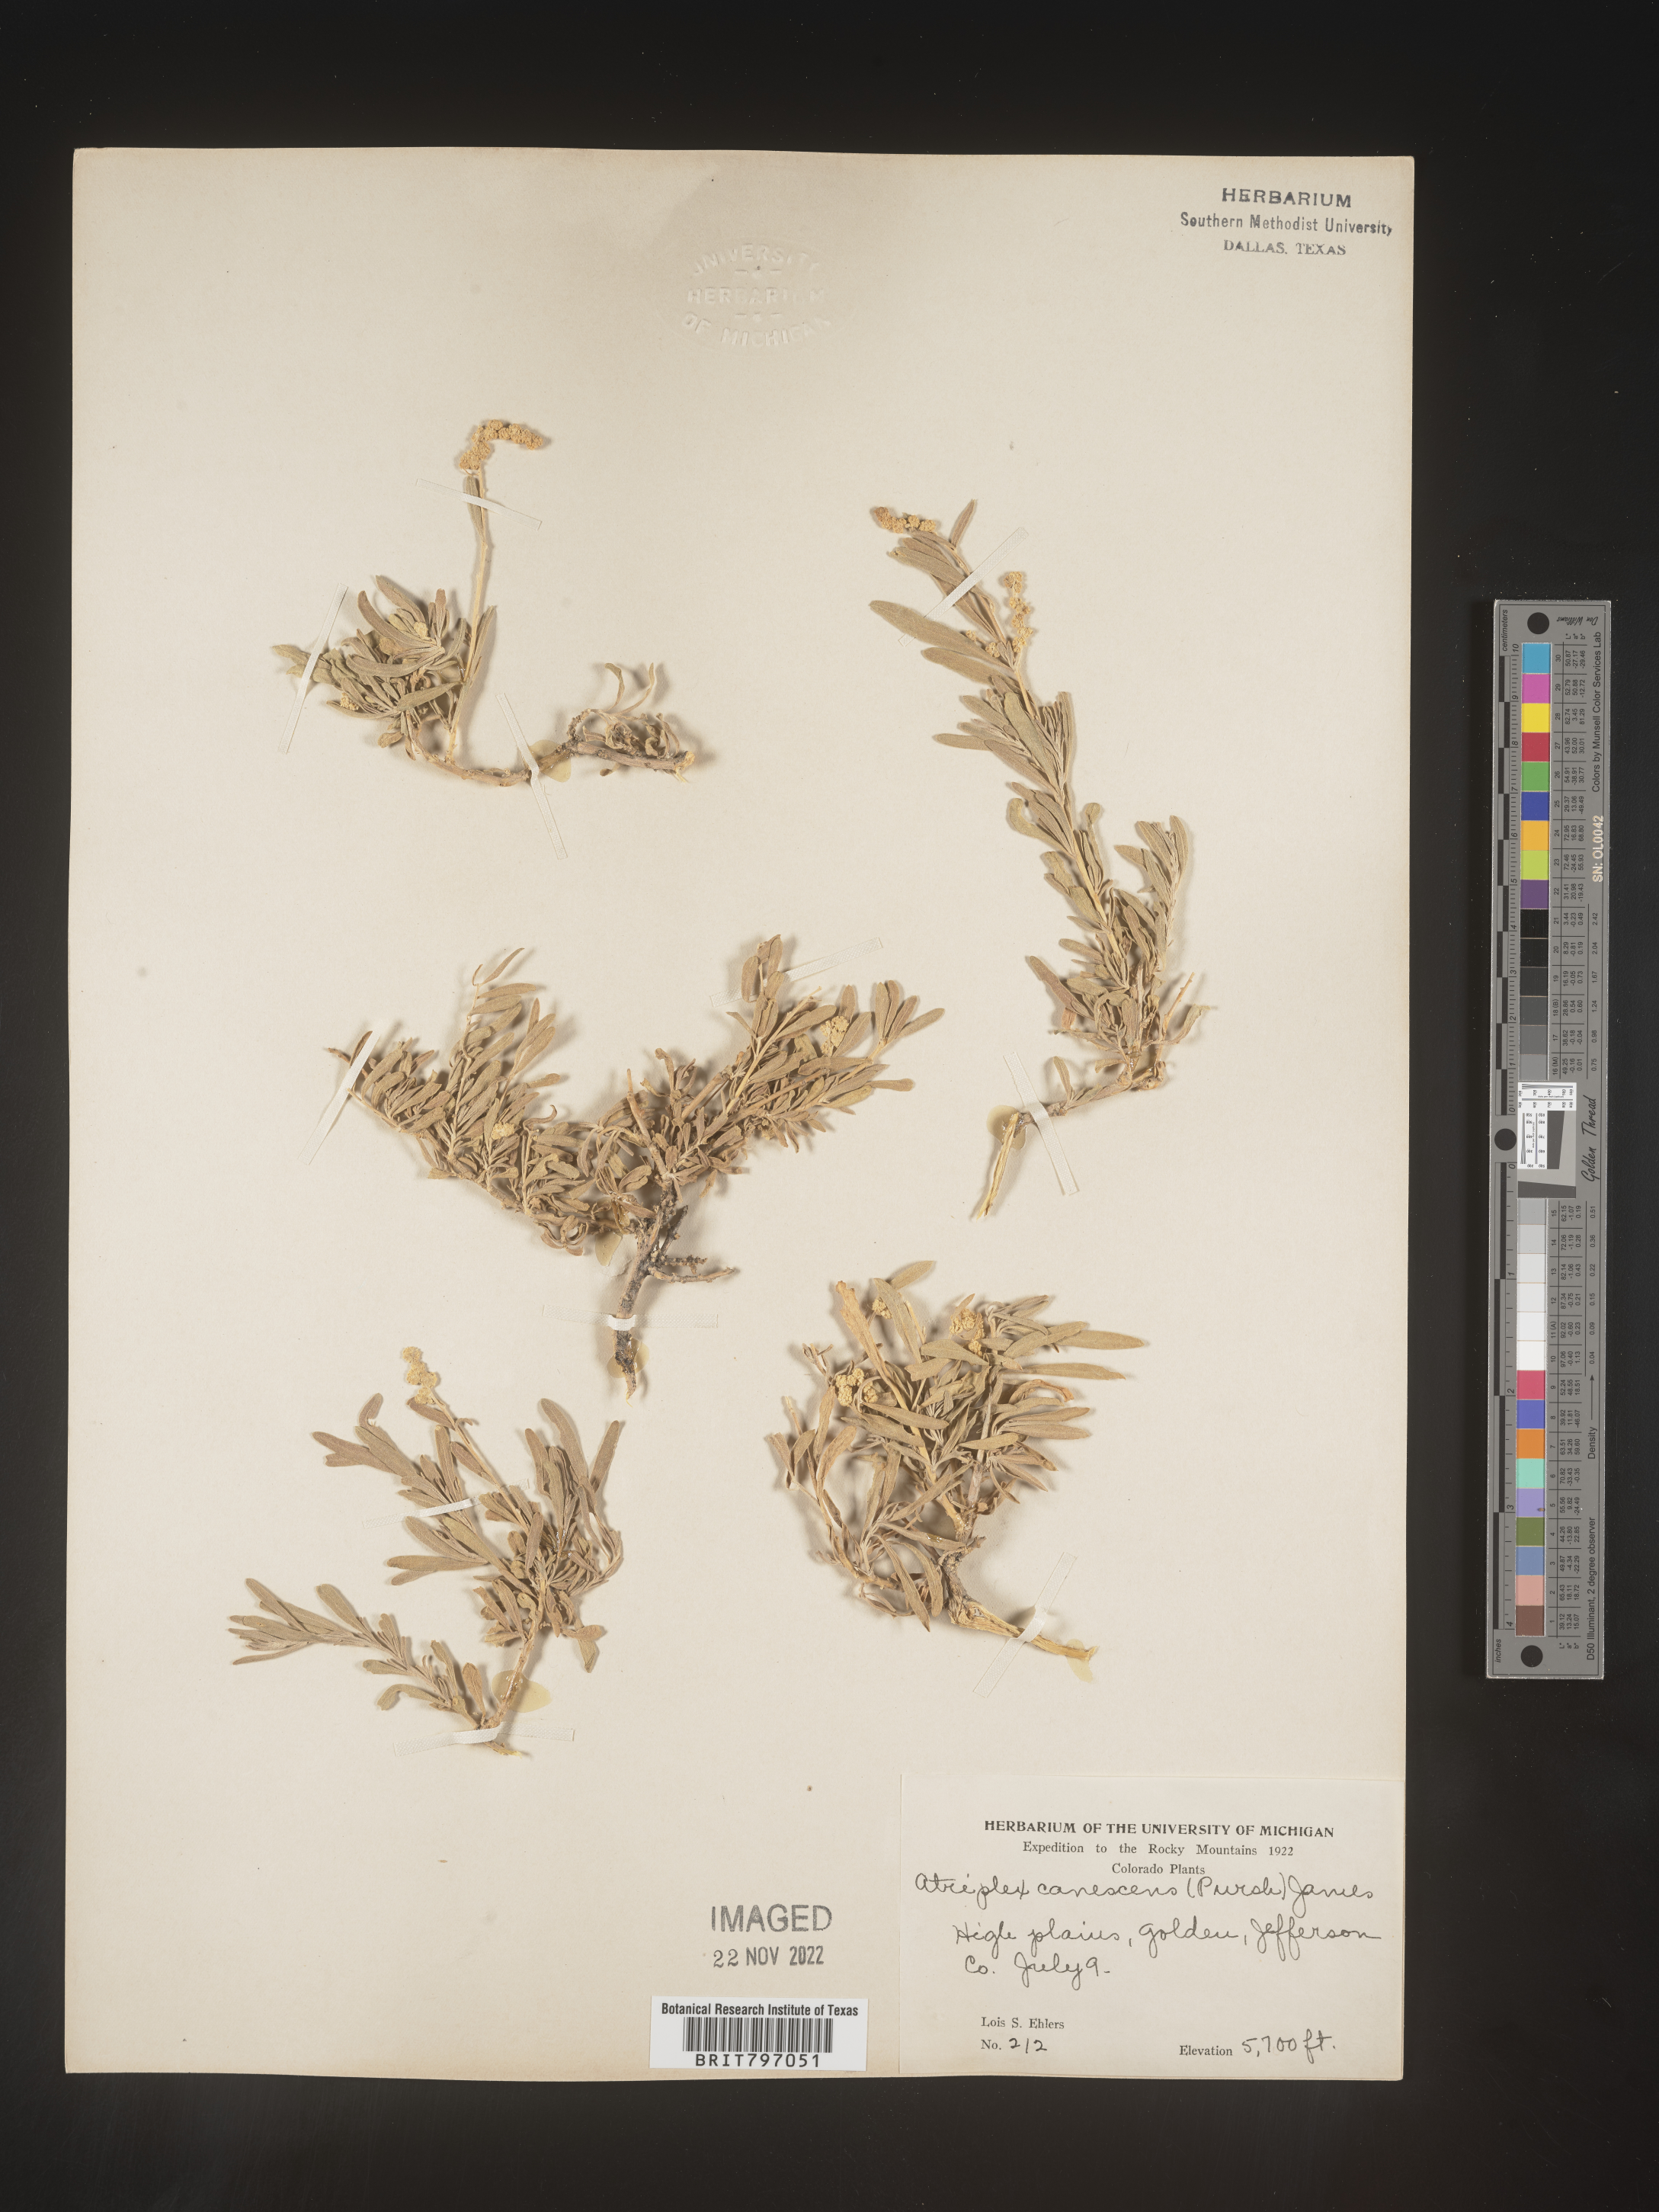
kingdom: Plantae
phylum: Tracheophyta
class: Magnoliopsida
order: Caryophyllales
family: Amaranthaceae
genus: Atriplex
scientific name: Atriplex canescens
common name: Four-wing saltbush
